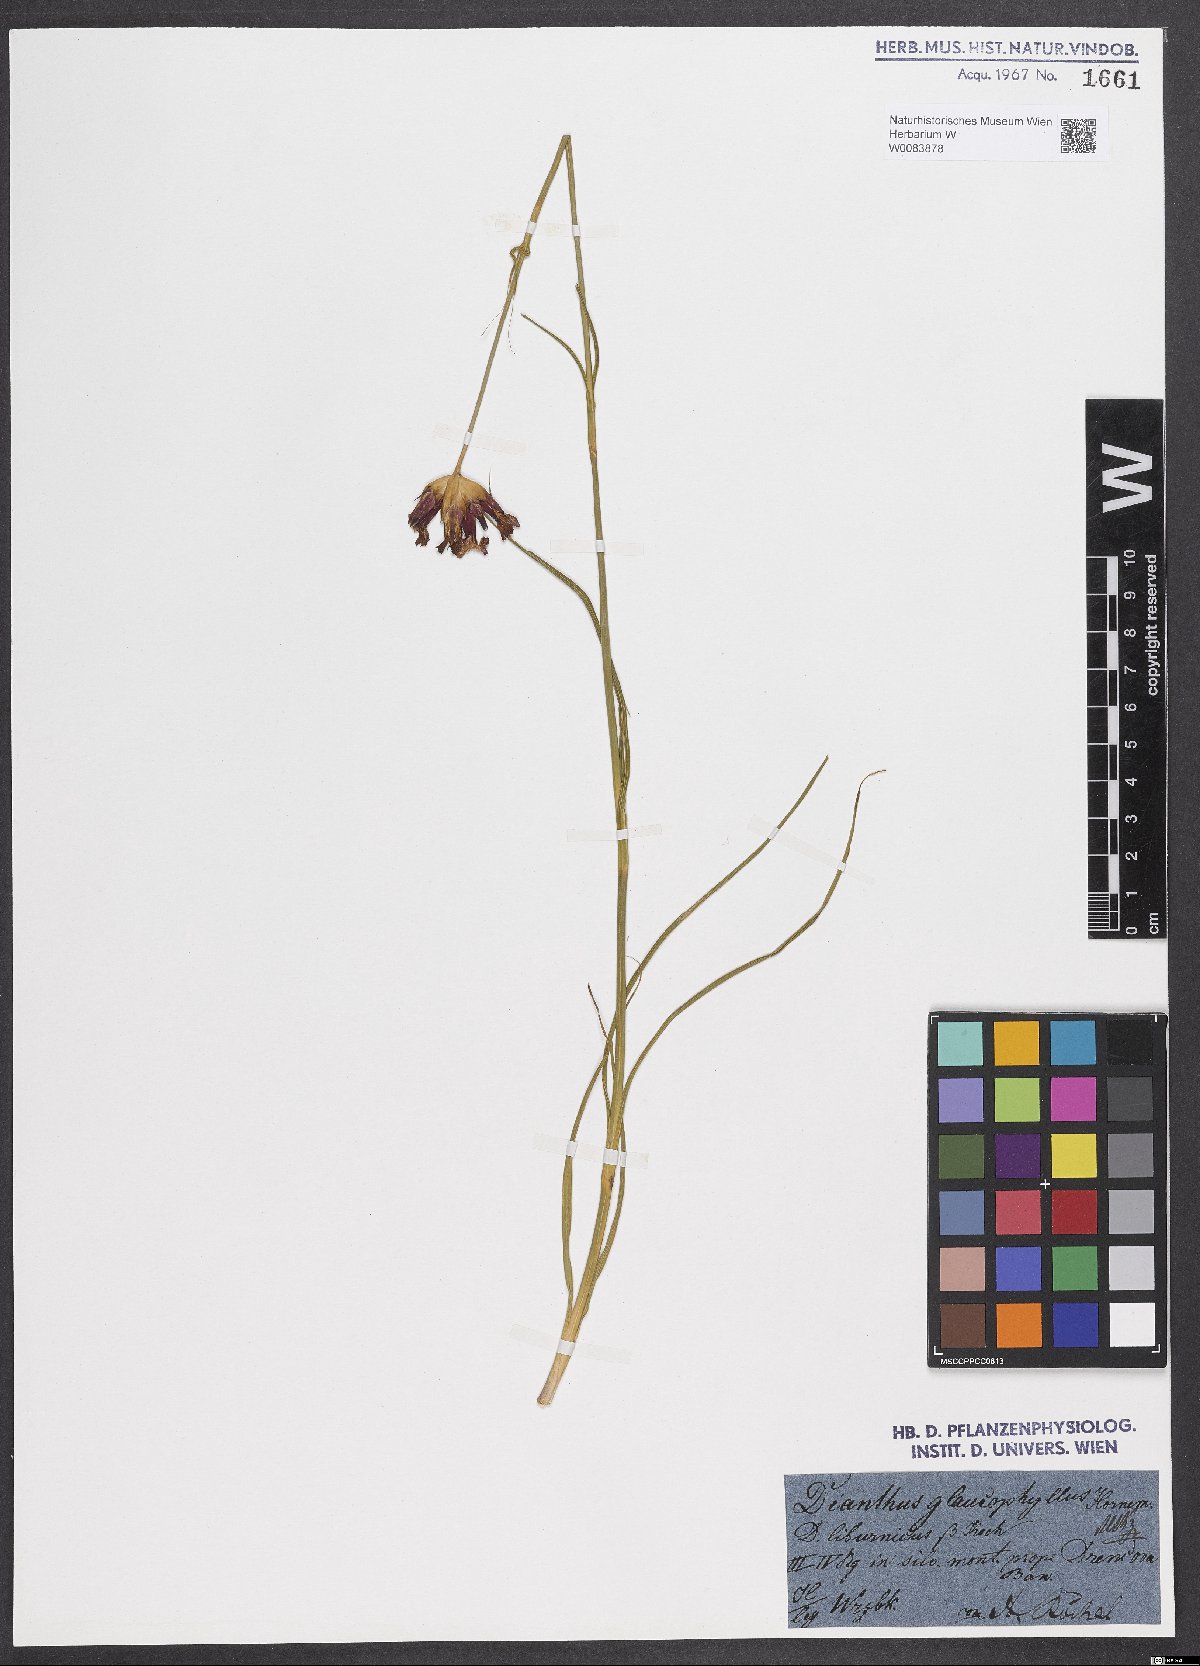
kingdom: Plantae
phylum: Tracheophyta
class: Magnoliopsida
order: Caryophyllales
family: Caryophyllaceae
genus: Dianthus
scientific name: Dianthus balbisii
